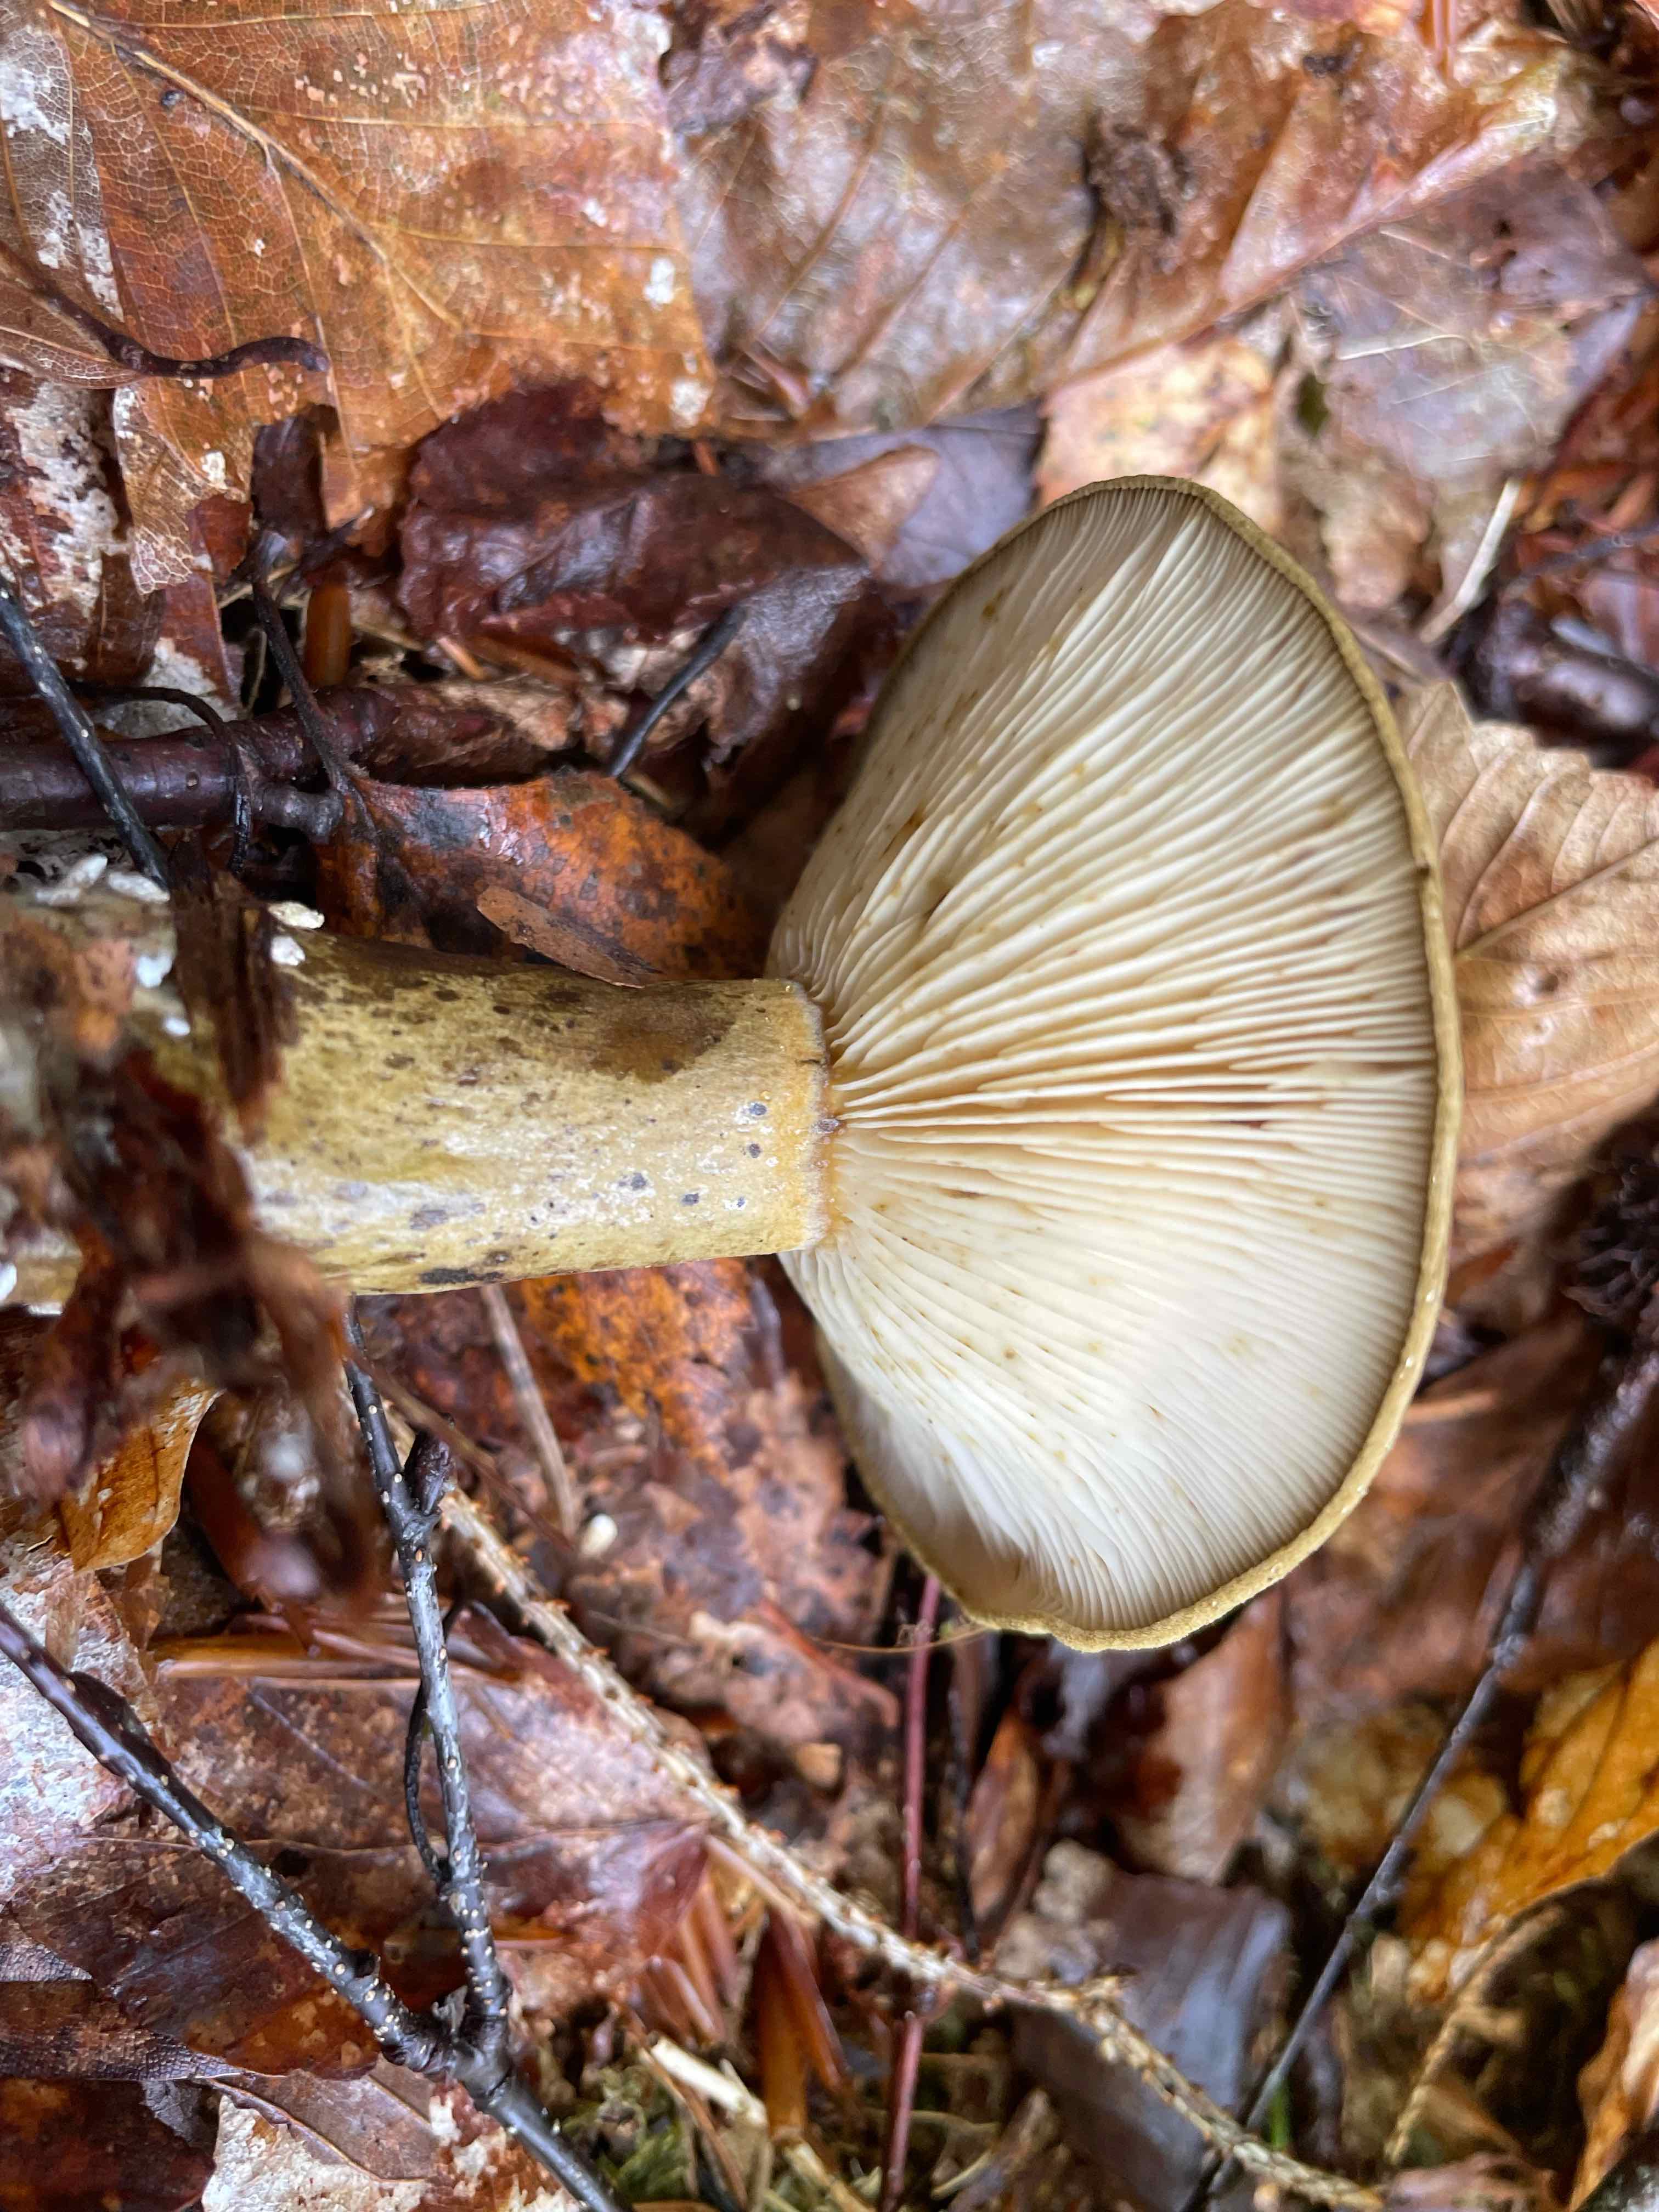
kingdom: Fungi
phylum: Basidiomycota
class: Agaricomycetes
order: Russulales
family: Russulaceae
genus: Lactarius
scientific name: Lactarius necator
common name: manddraber-mælkehat
